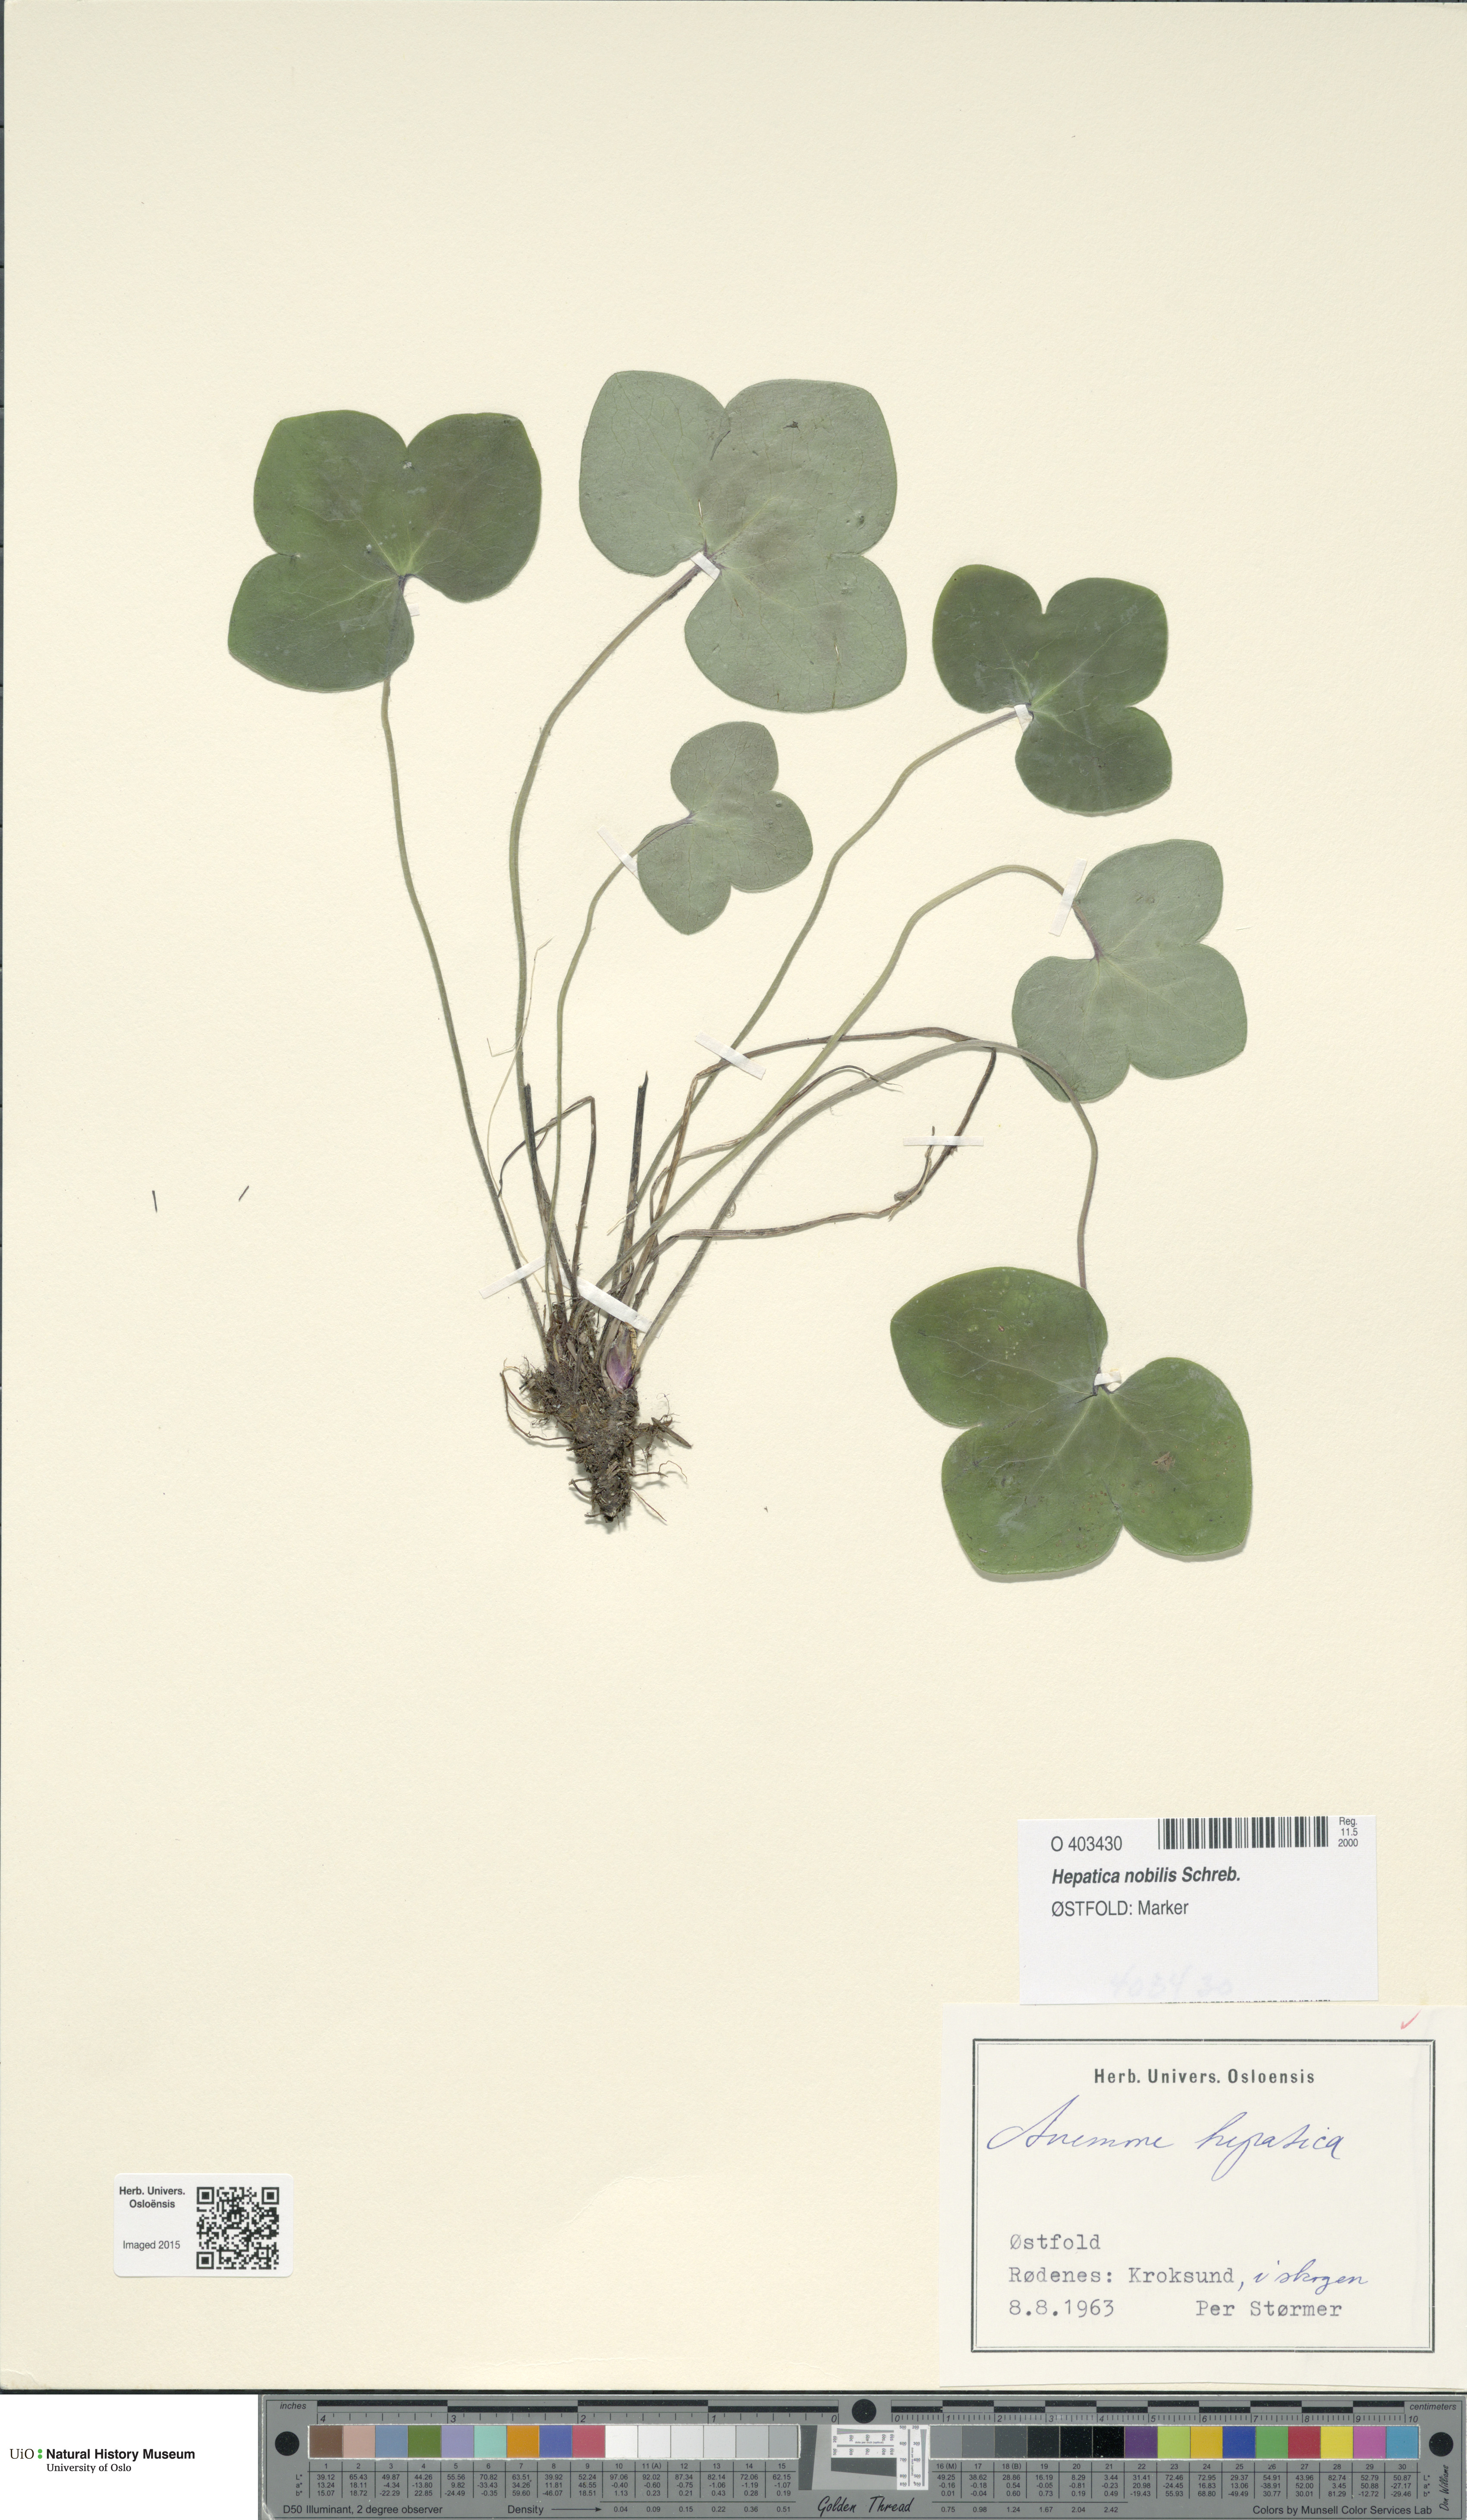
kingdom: Plantae
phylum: Tracheophyta
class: Magnoliopsida
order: Ranunculales
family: Ranunculaceae
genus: Hepatica
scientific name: Hepatica nobilis
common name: Liverleaf
